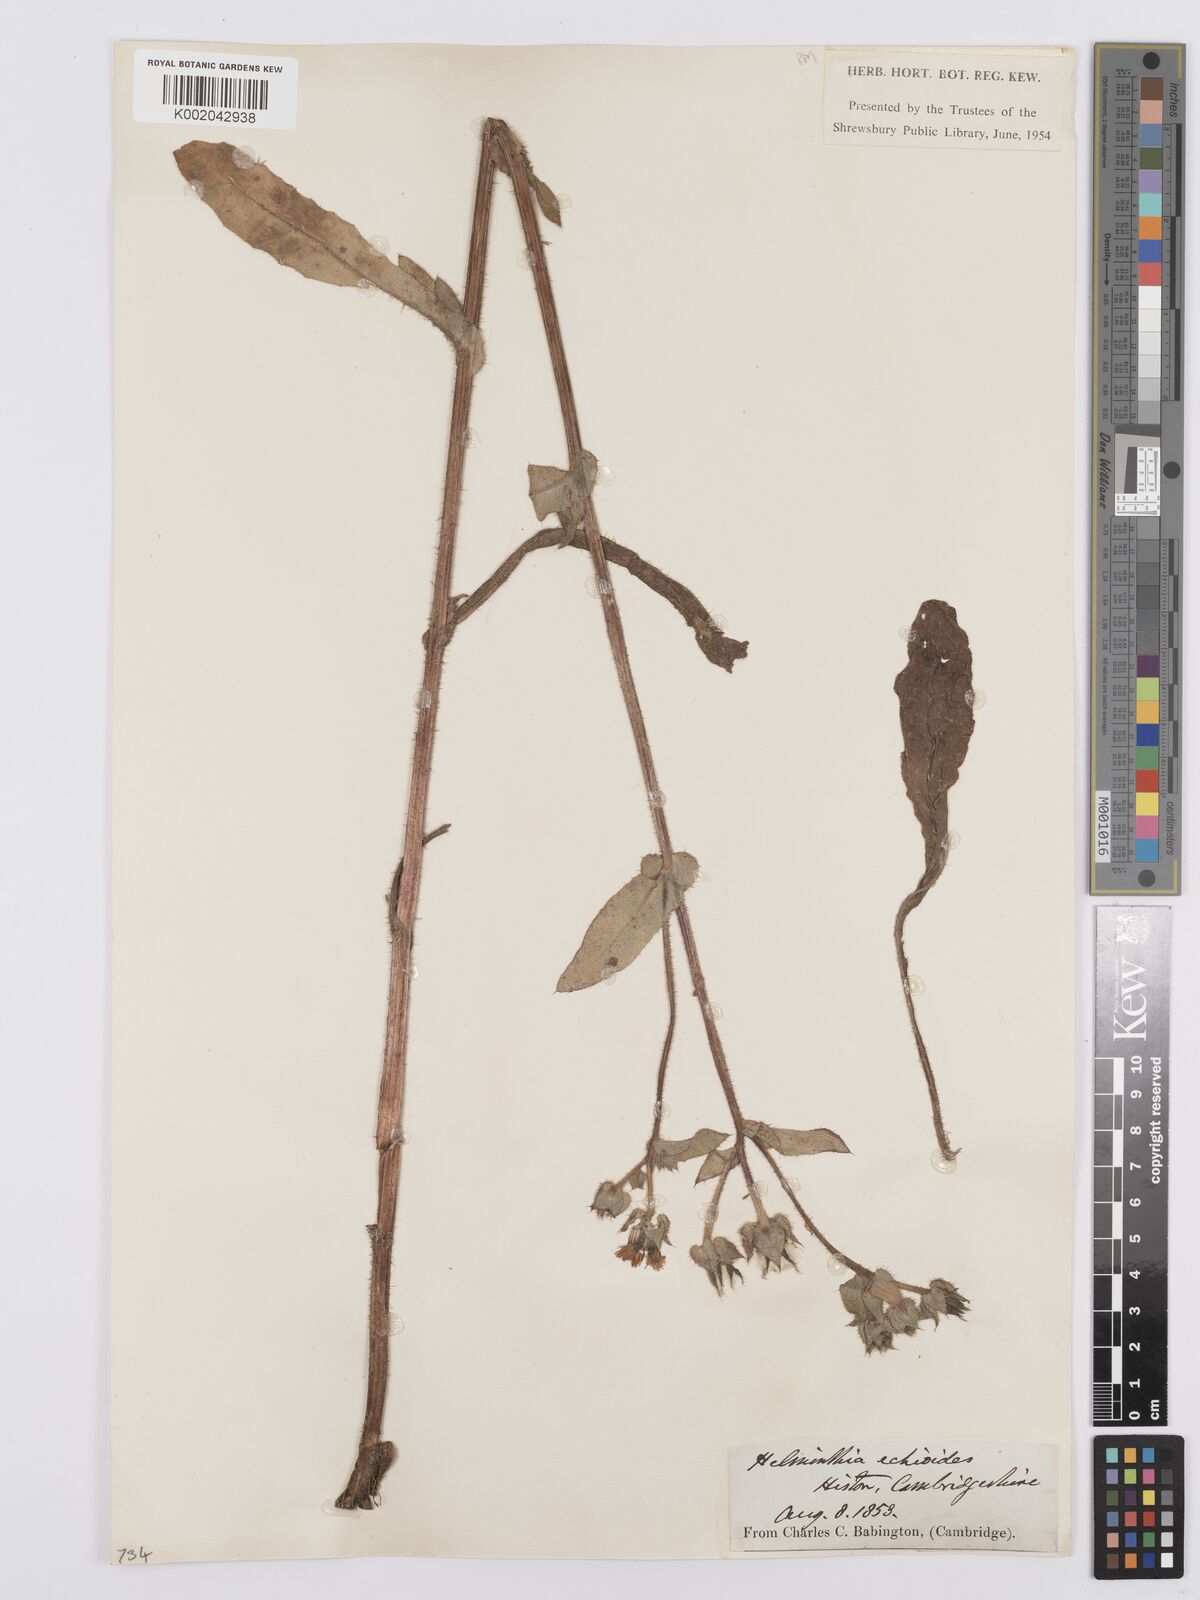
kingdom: Plantae
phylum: Tracheophyta
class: Magnoliopsida
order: Asterales
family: Asteraceae
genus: Helminthotheca
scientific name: Helminthotheca echioides
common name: Ox-tongue
